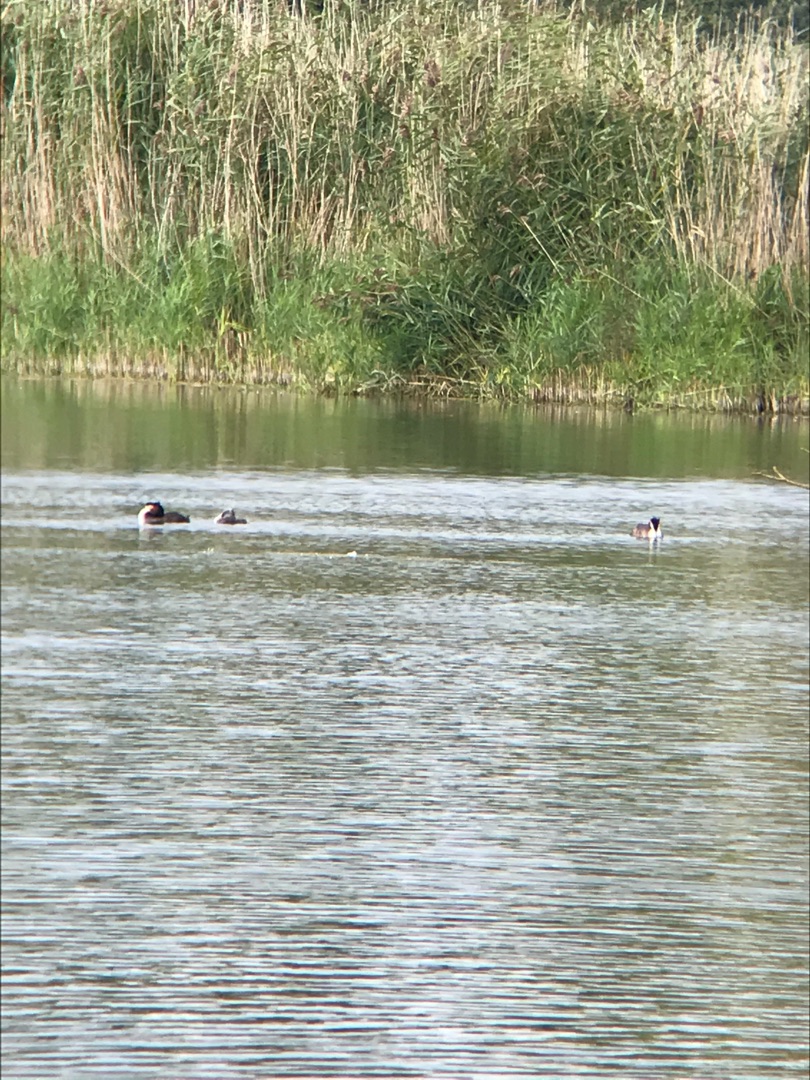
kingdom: Animalia
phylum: Chordata
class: Aves
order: Podicipediformes
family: Podicipedidae
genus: Podiceps
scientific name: Podiceps cristatus
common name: Toppet lappedykker
